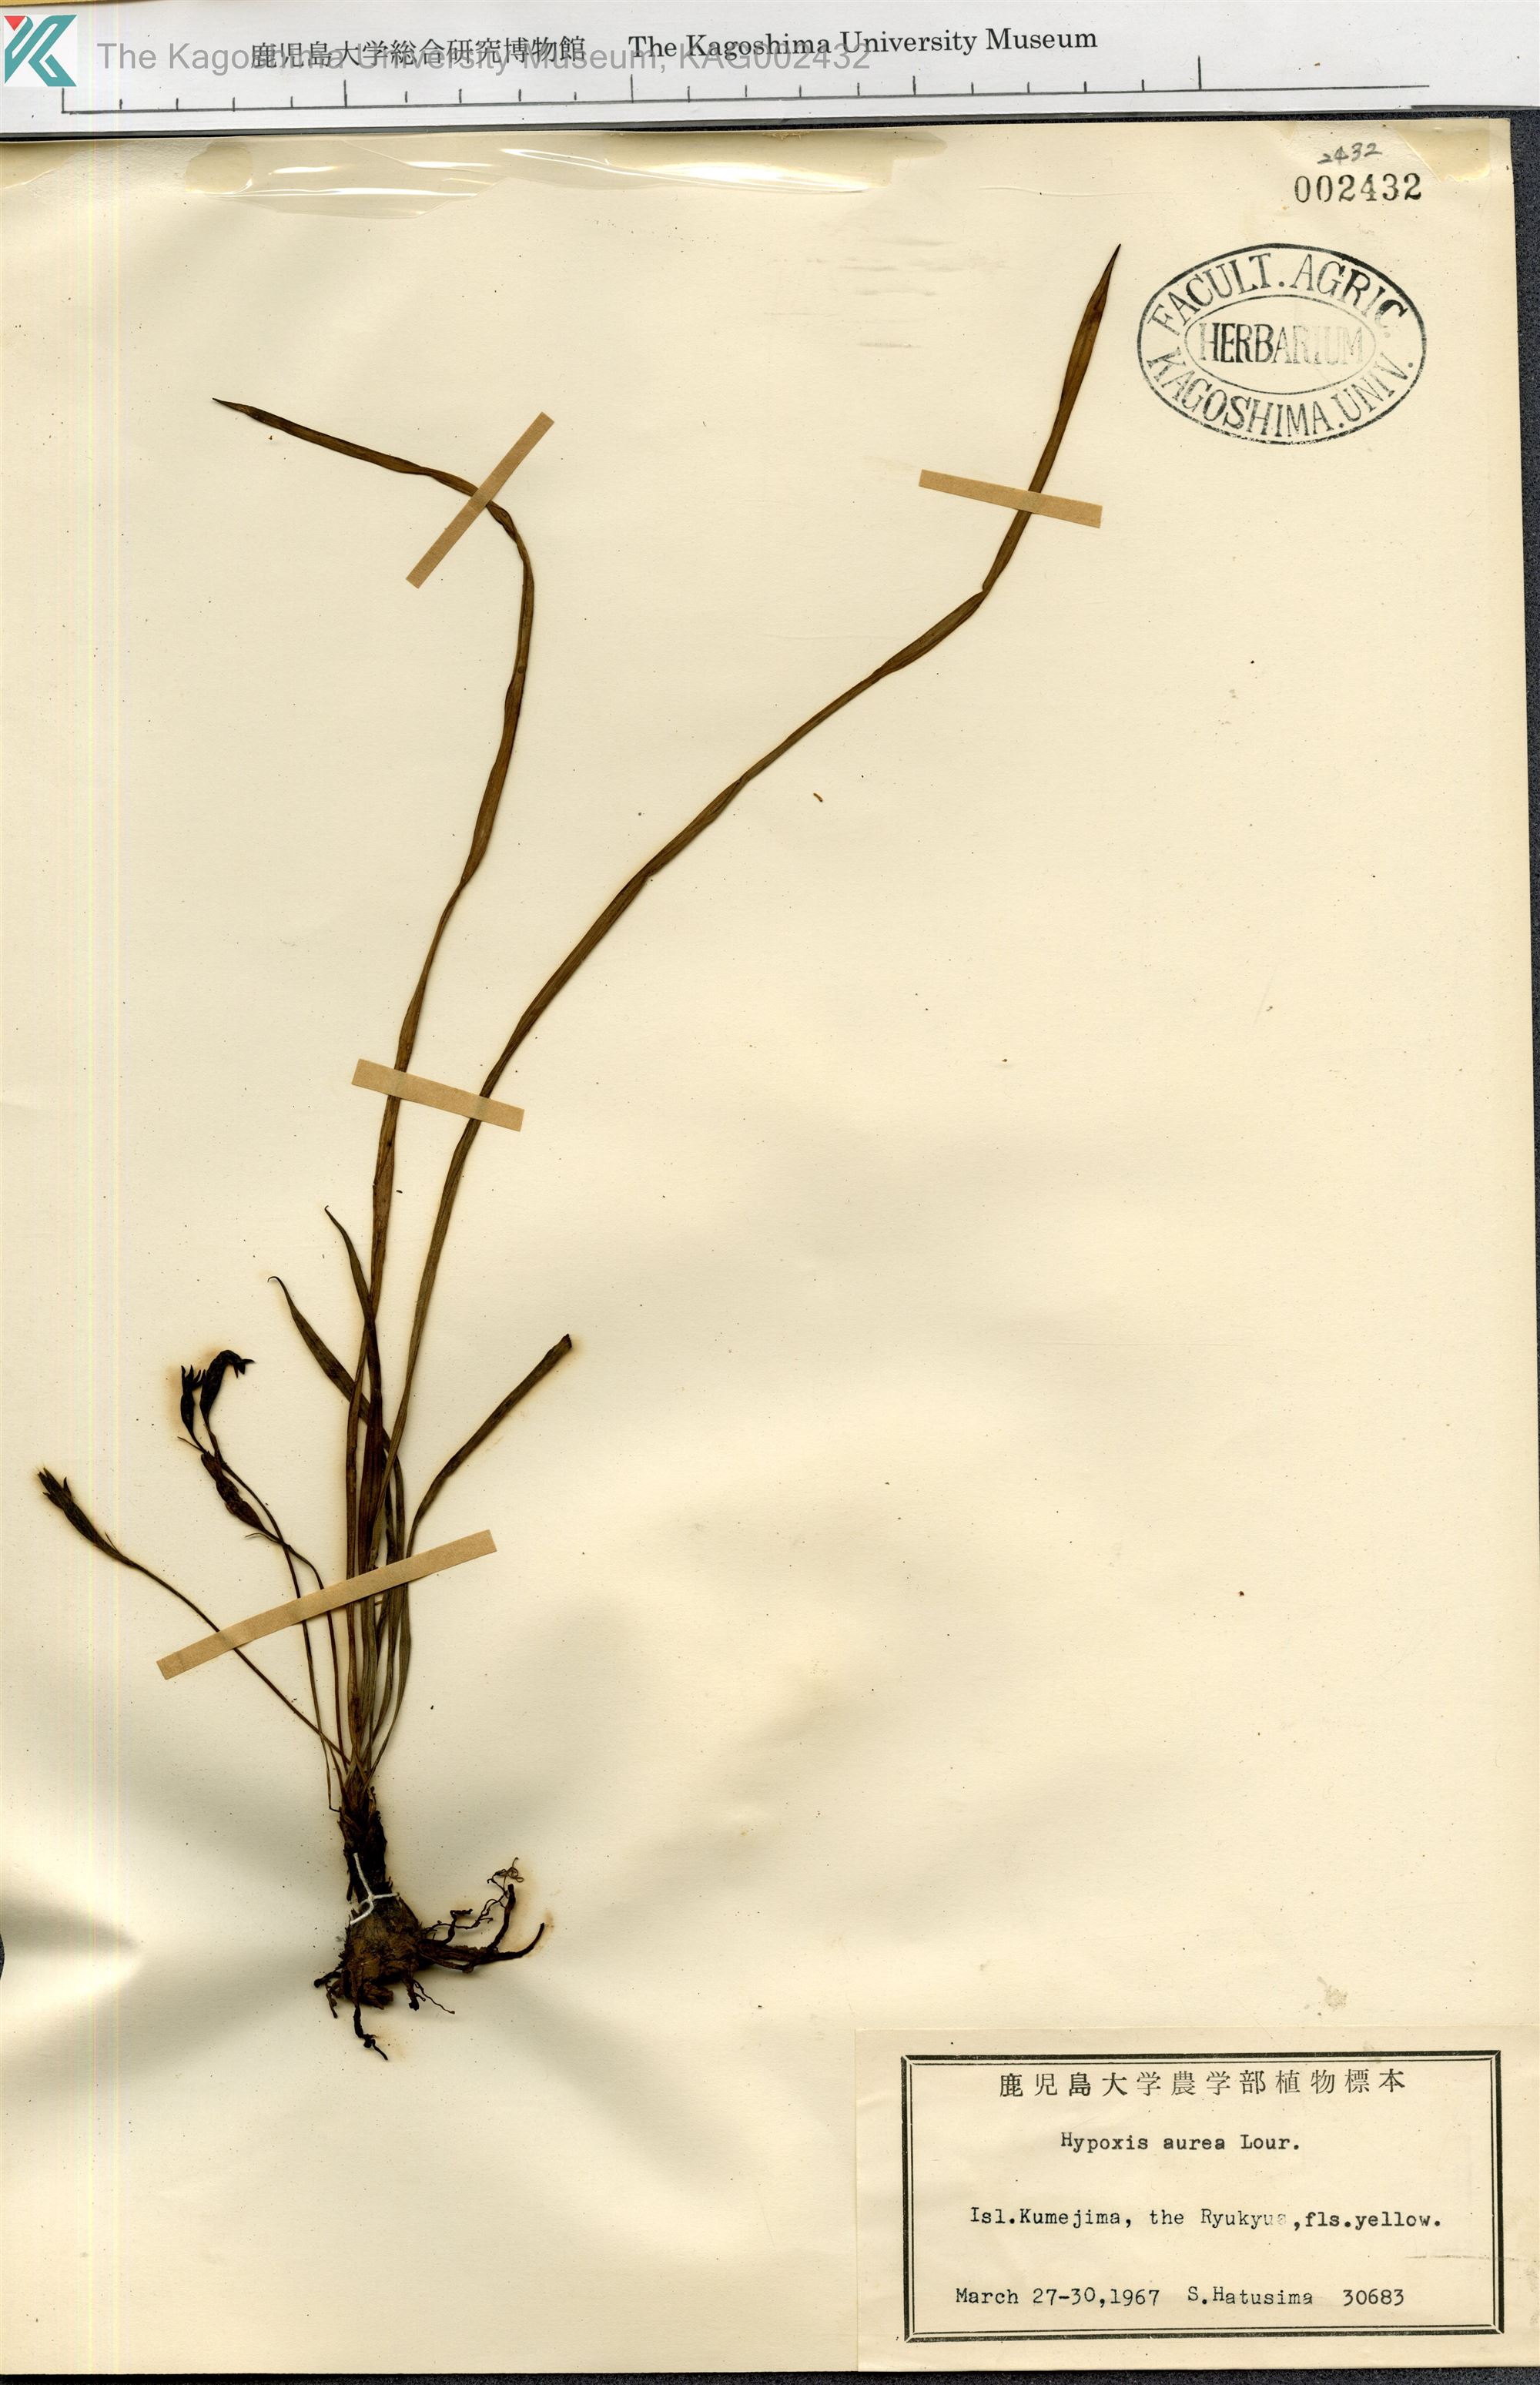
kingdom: Plantae
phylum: Tracheophyta
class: Liliopsida
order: Asparagales
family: Hypoxidaceae
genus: Hypoxis
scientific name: Hypoxis aurea
